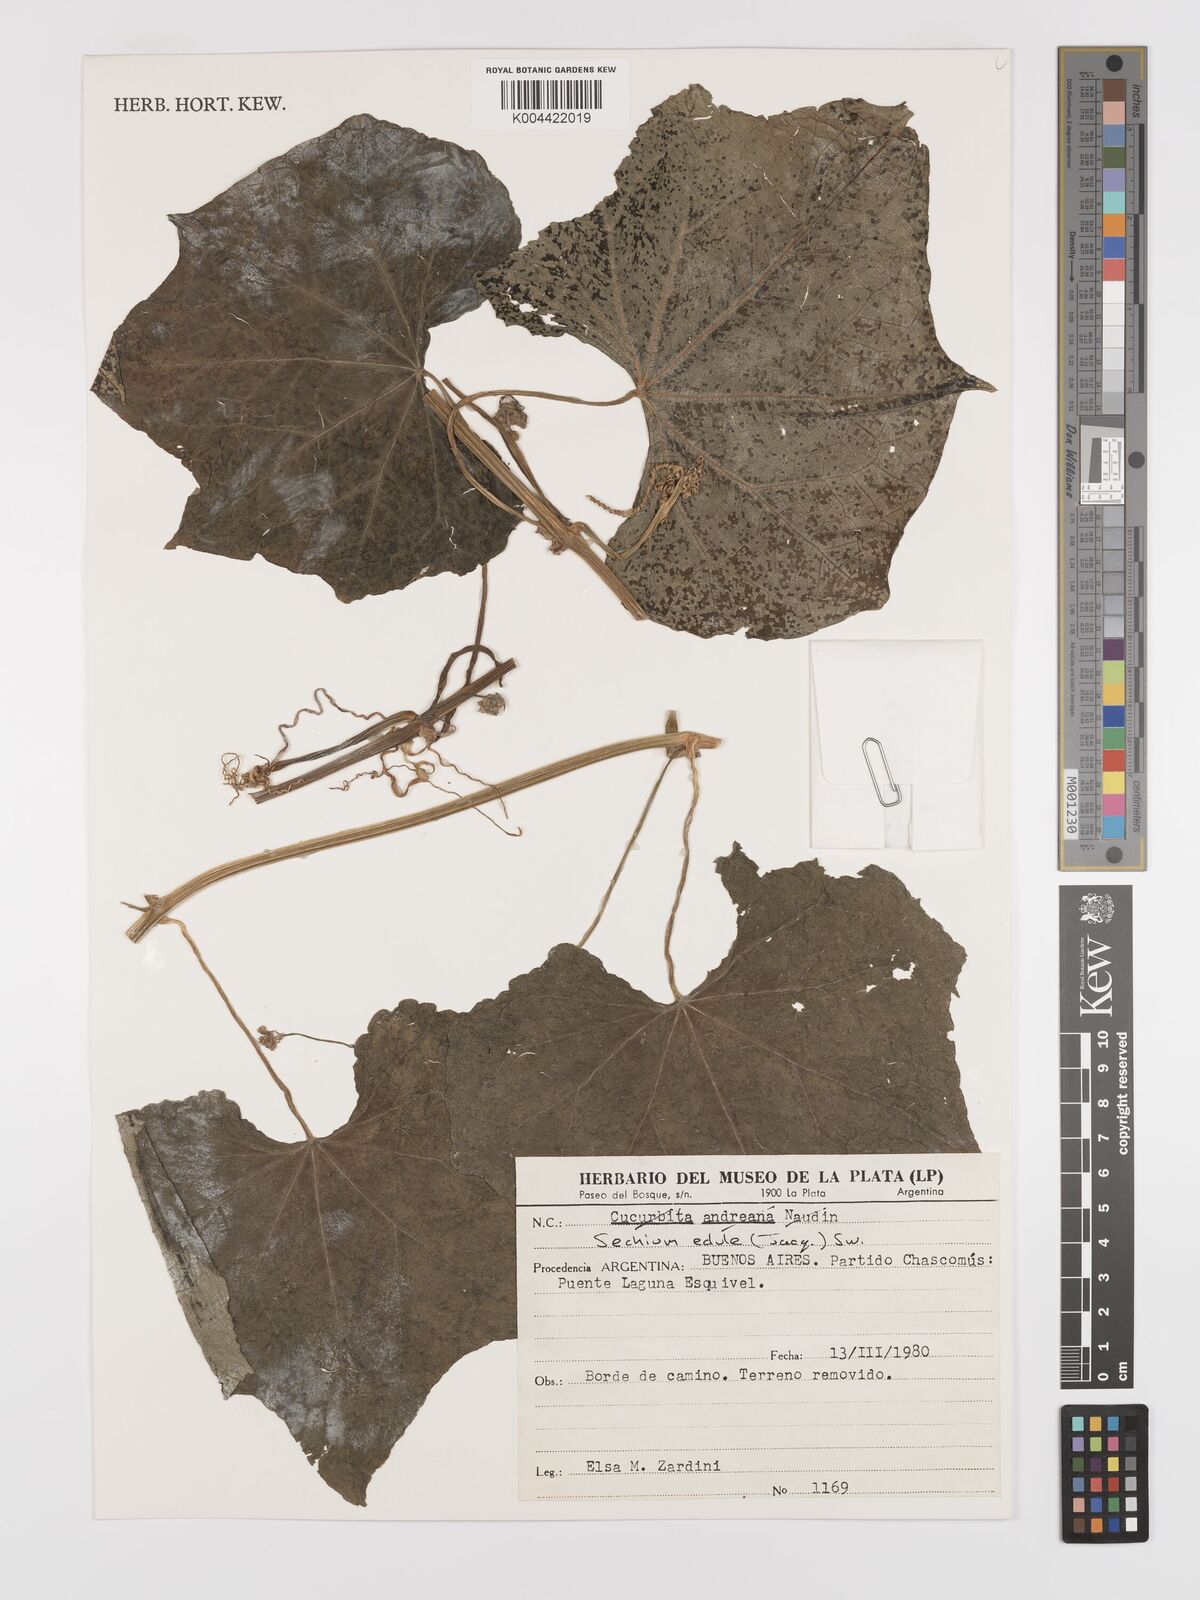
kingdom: Plantae
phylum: Tracheophyta
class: Magnoliopsida
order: Cucurbitales
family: Cucurbitaceae
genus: Sechium
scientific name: Sechium edule
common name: Chayote
